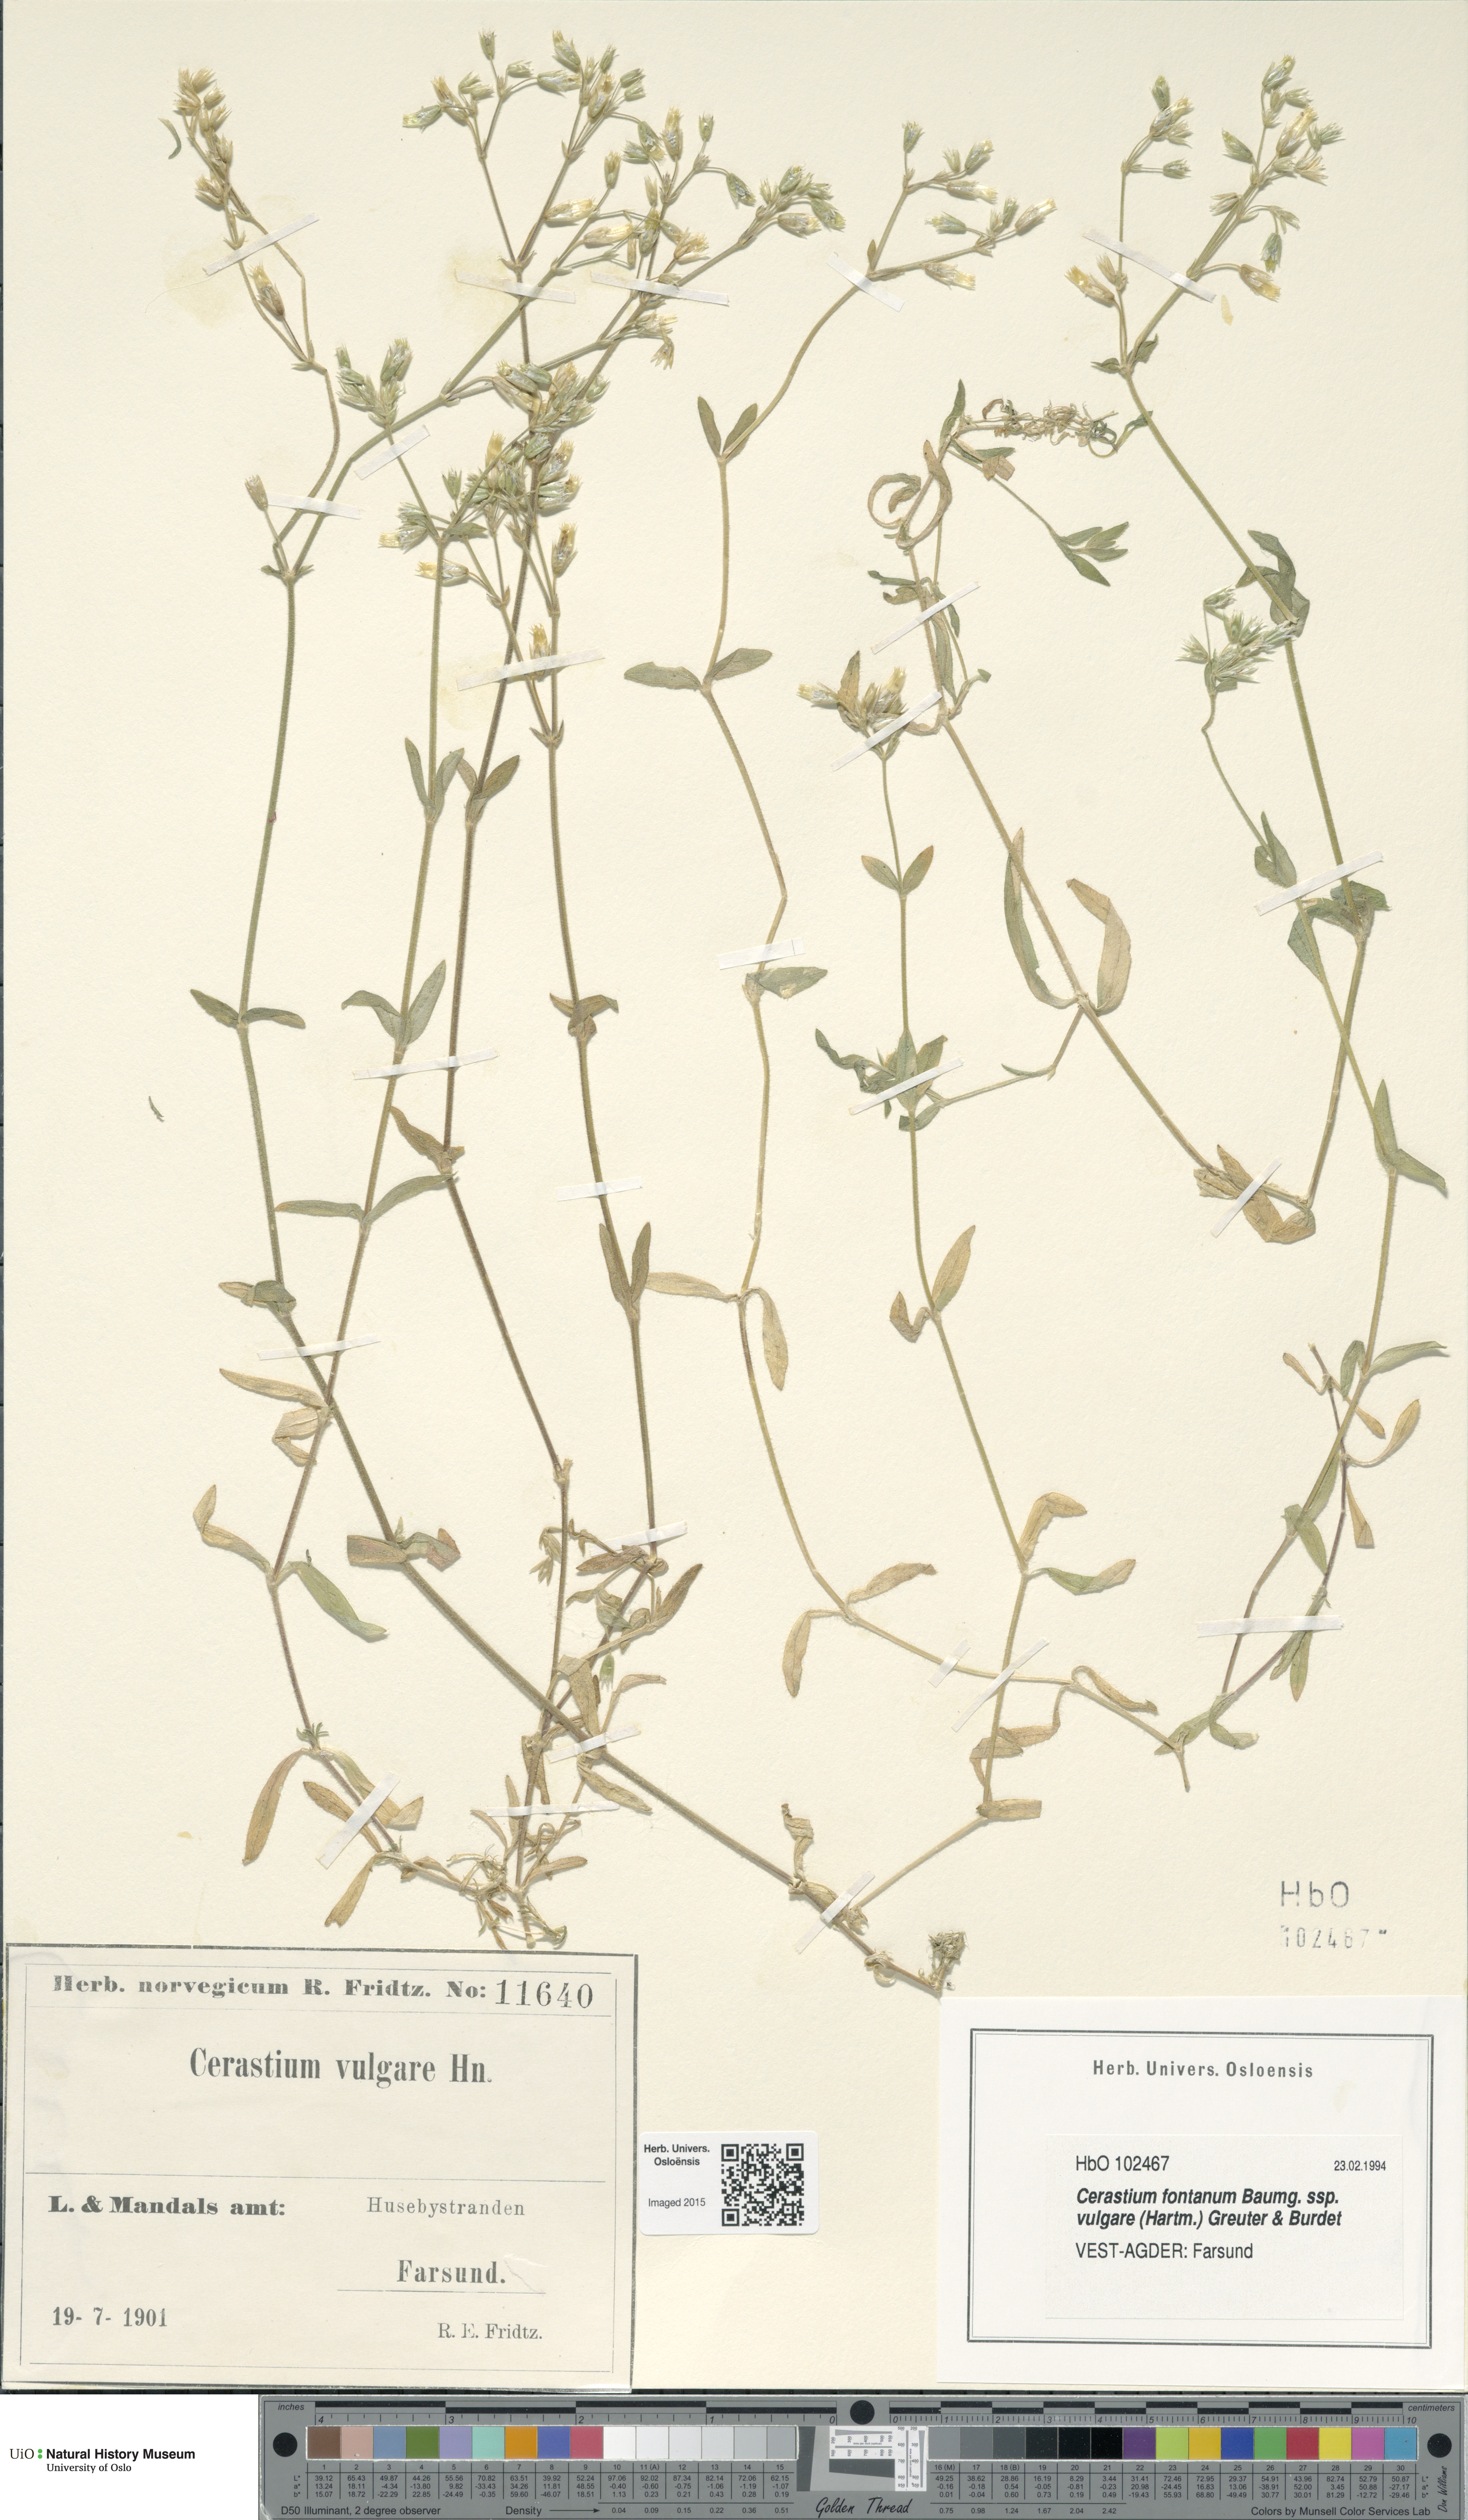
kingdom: Plantae
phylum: Tracheophyta
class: Magnoliopsida
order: Caryophyllales
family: Caryophyllaceae
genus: Cerastium
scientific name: Cerastium holosteoides
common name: Big chickweed
